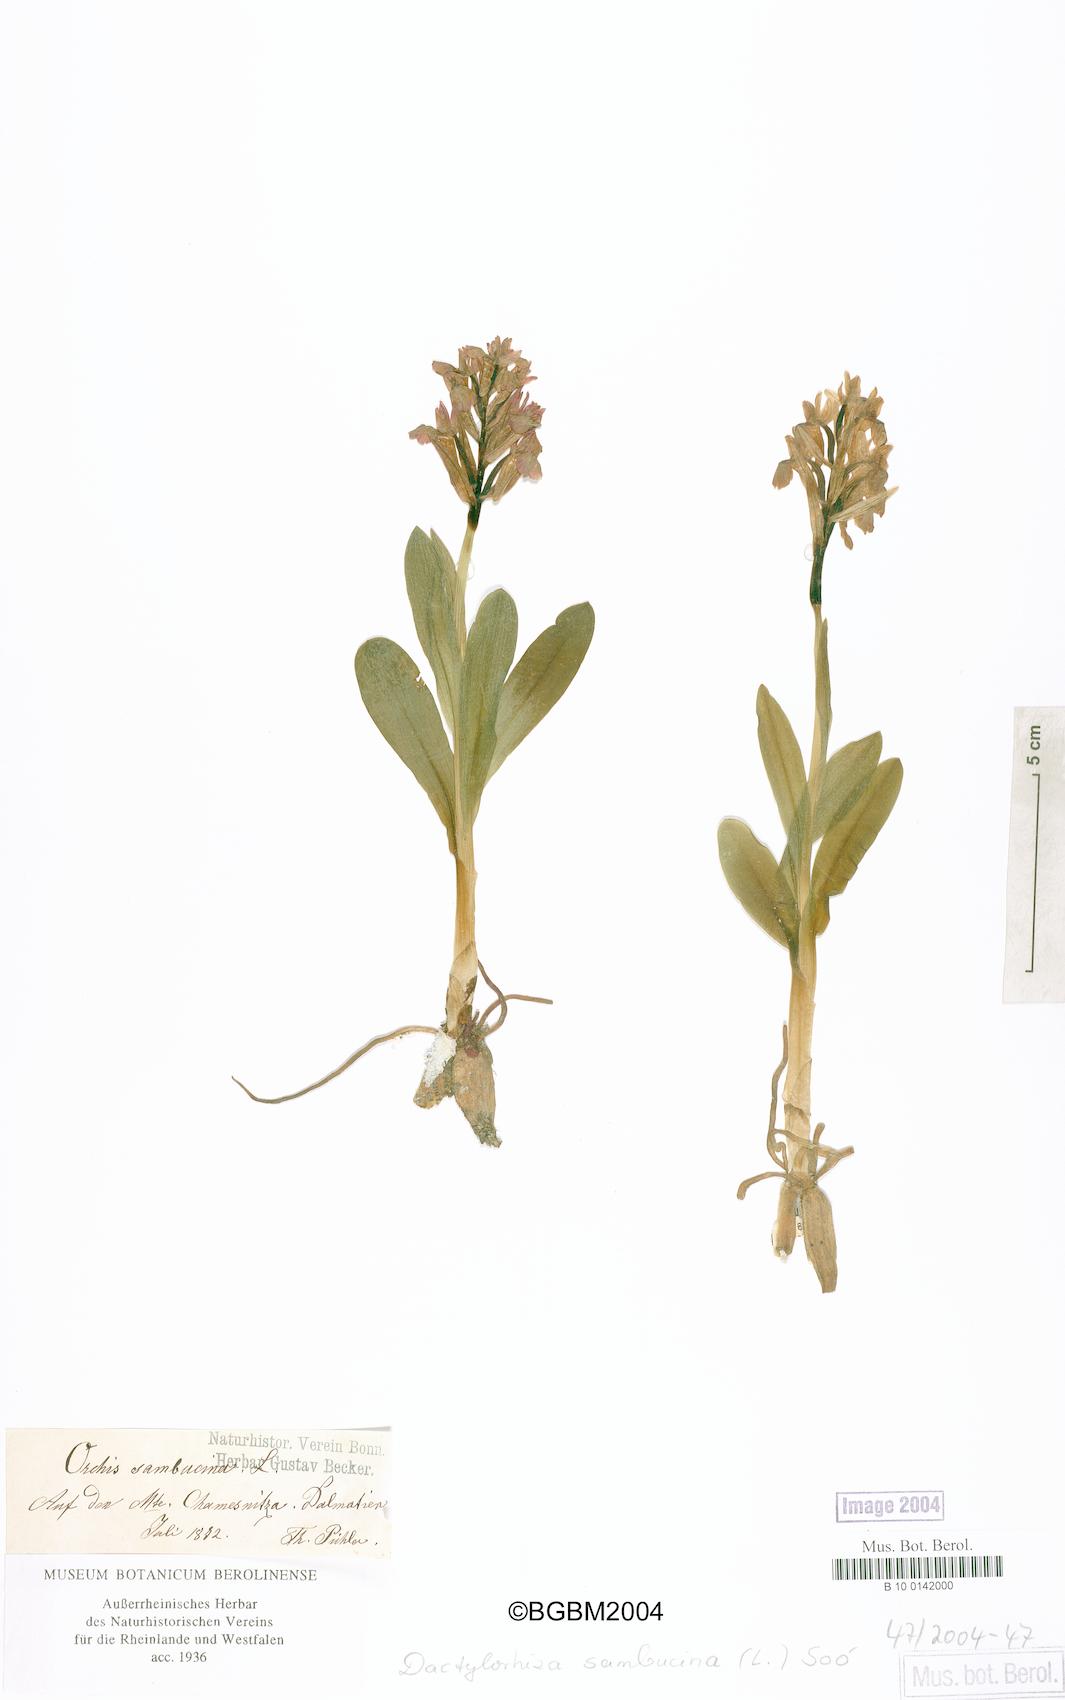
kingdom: Plantae
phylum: Tracheophyta
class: Liliopsida
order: Asparagales
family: Orchidaceae
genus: Dactylorhiza
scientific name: Dactylorhiza sambucina
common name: Elder-flowered orchid
